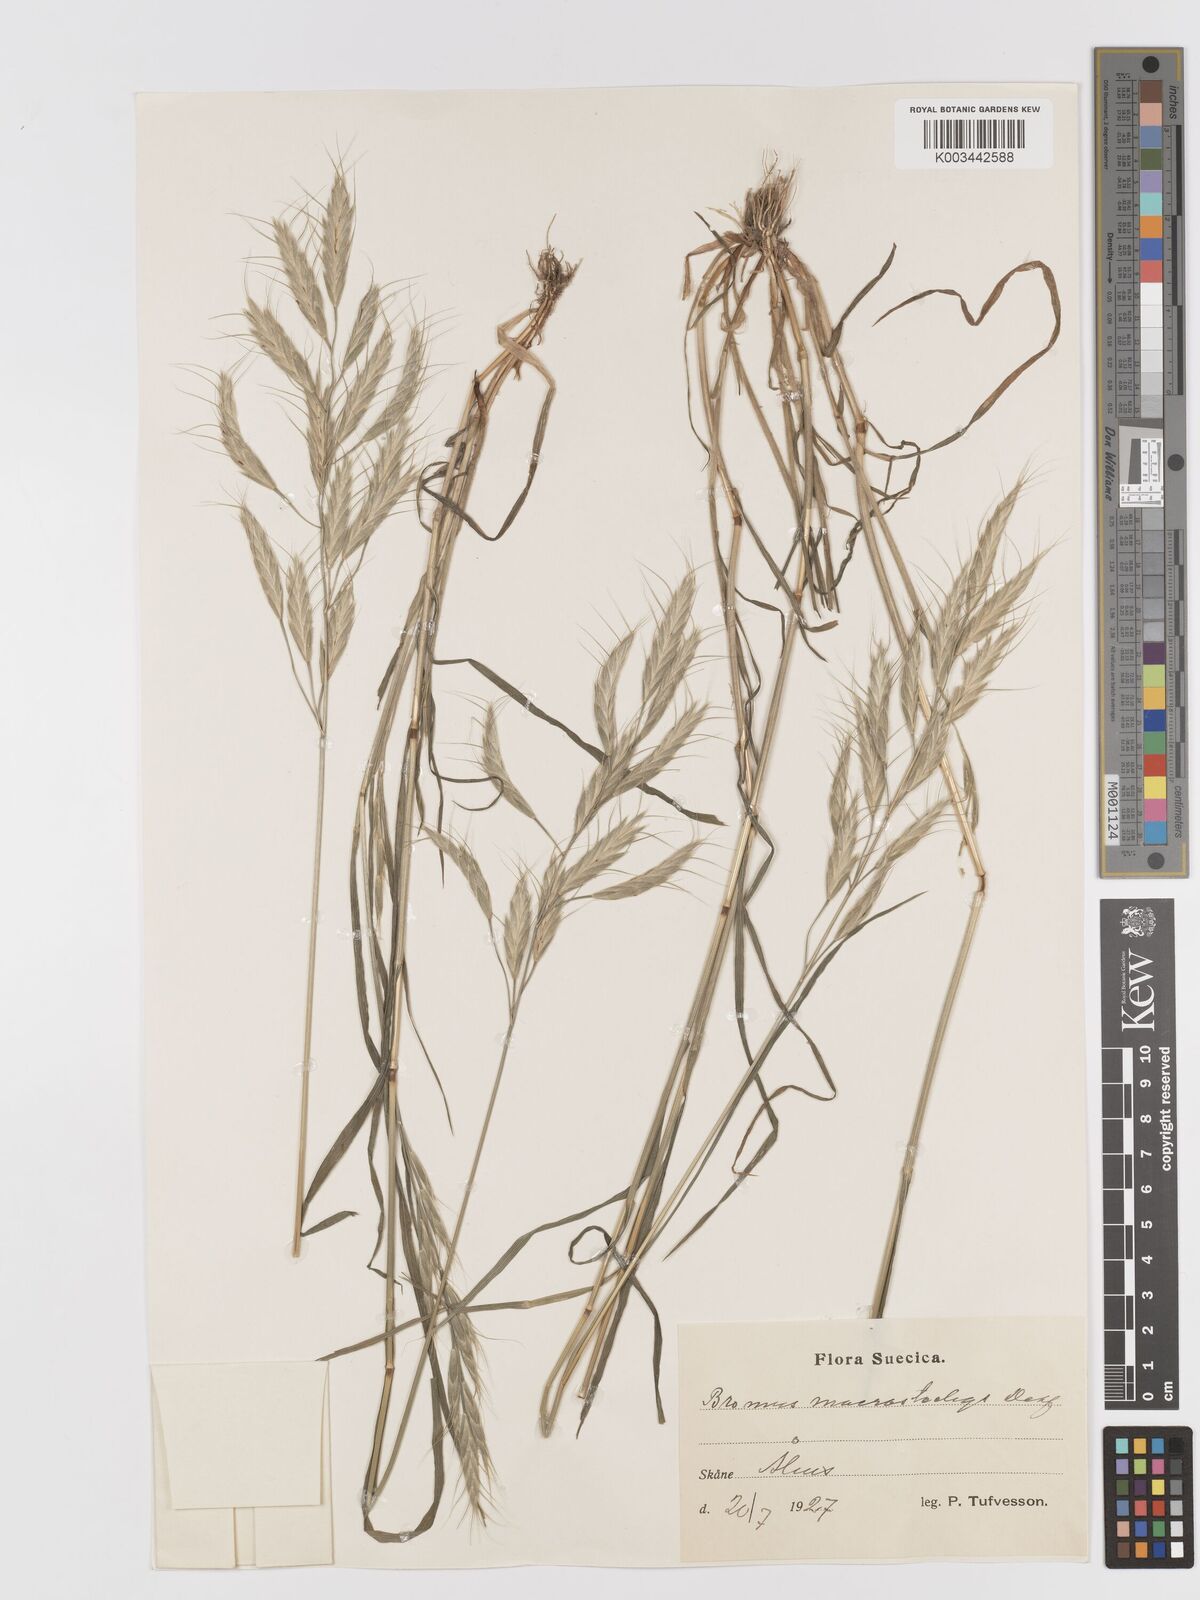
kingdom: Plantae
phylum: Tracheophyta
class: Liliopsida
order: Poales
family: Poaceae
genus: Bromus
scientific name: Bromus lanceolatus
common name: Mediterranean brome
